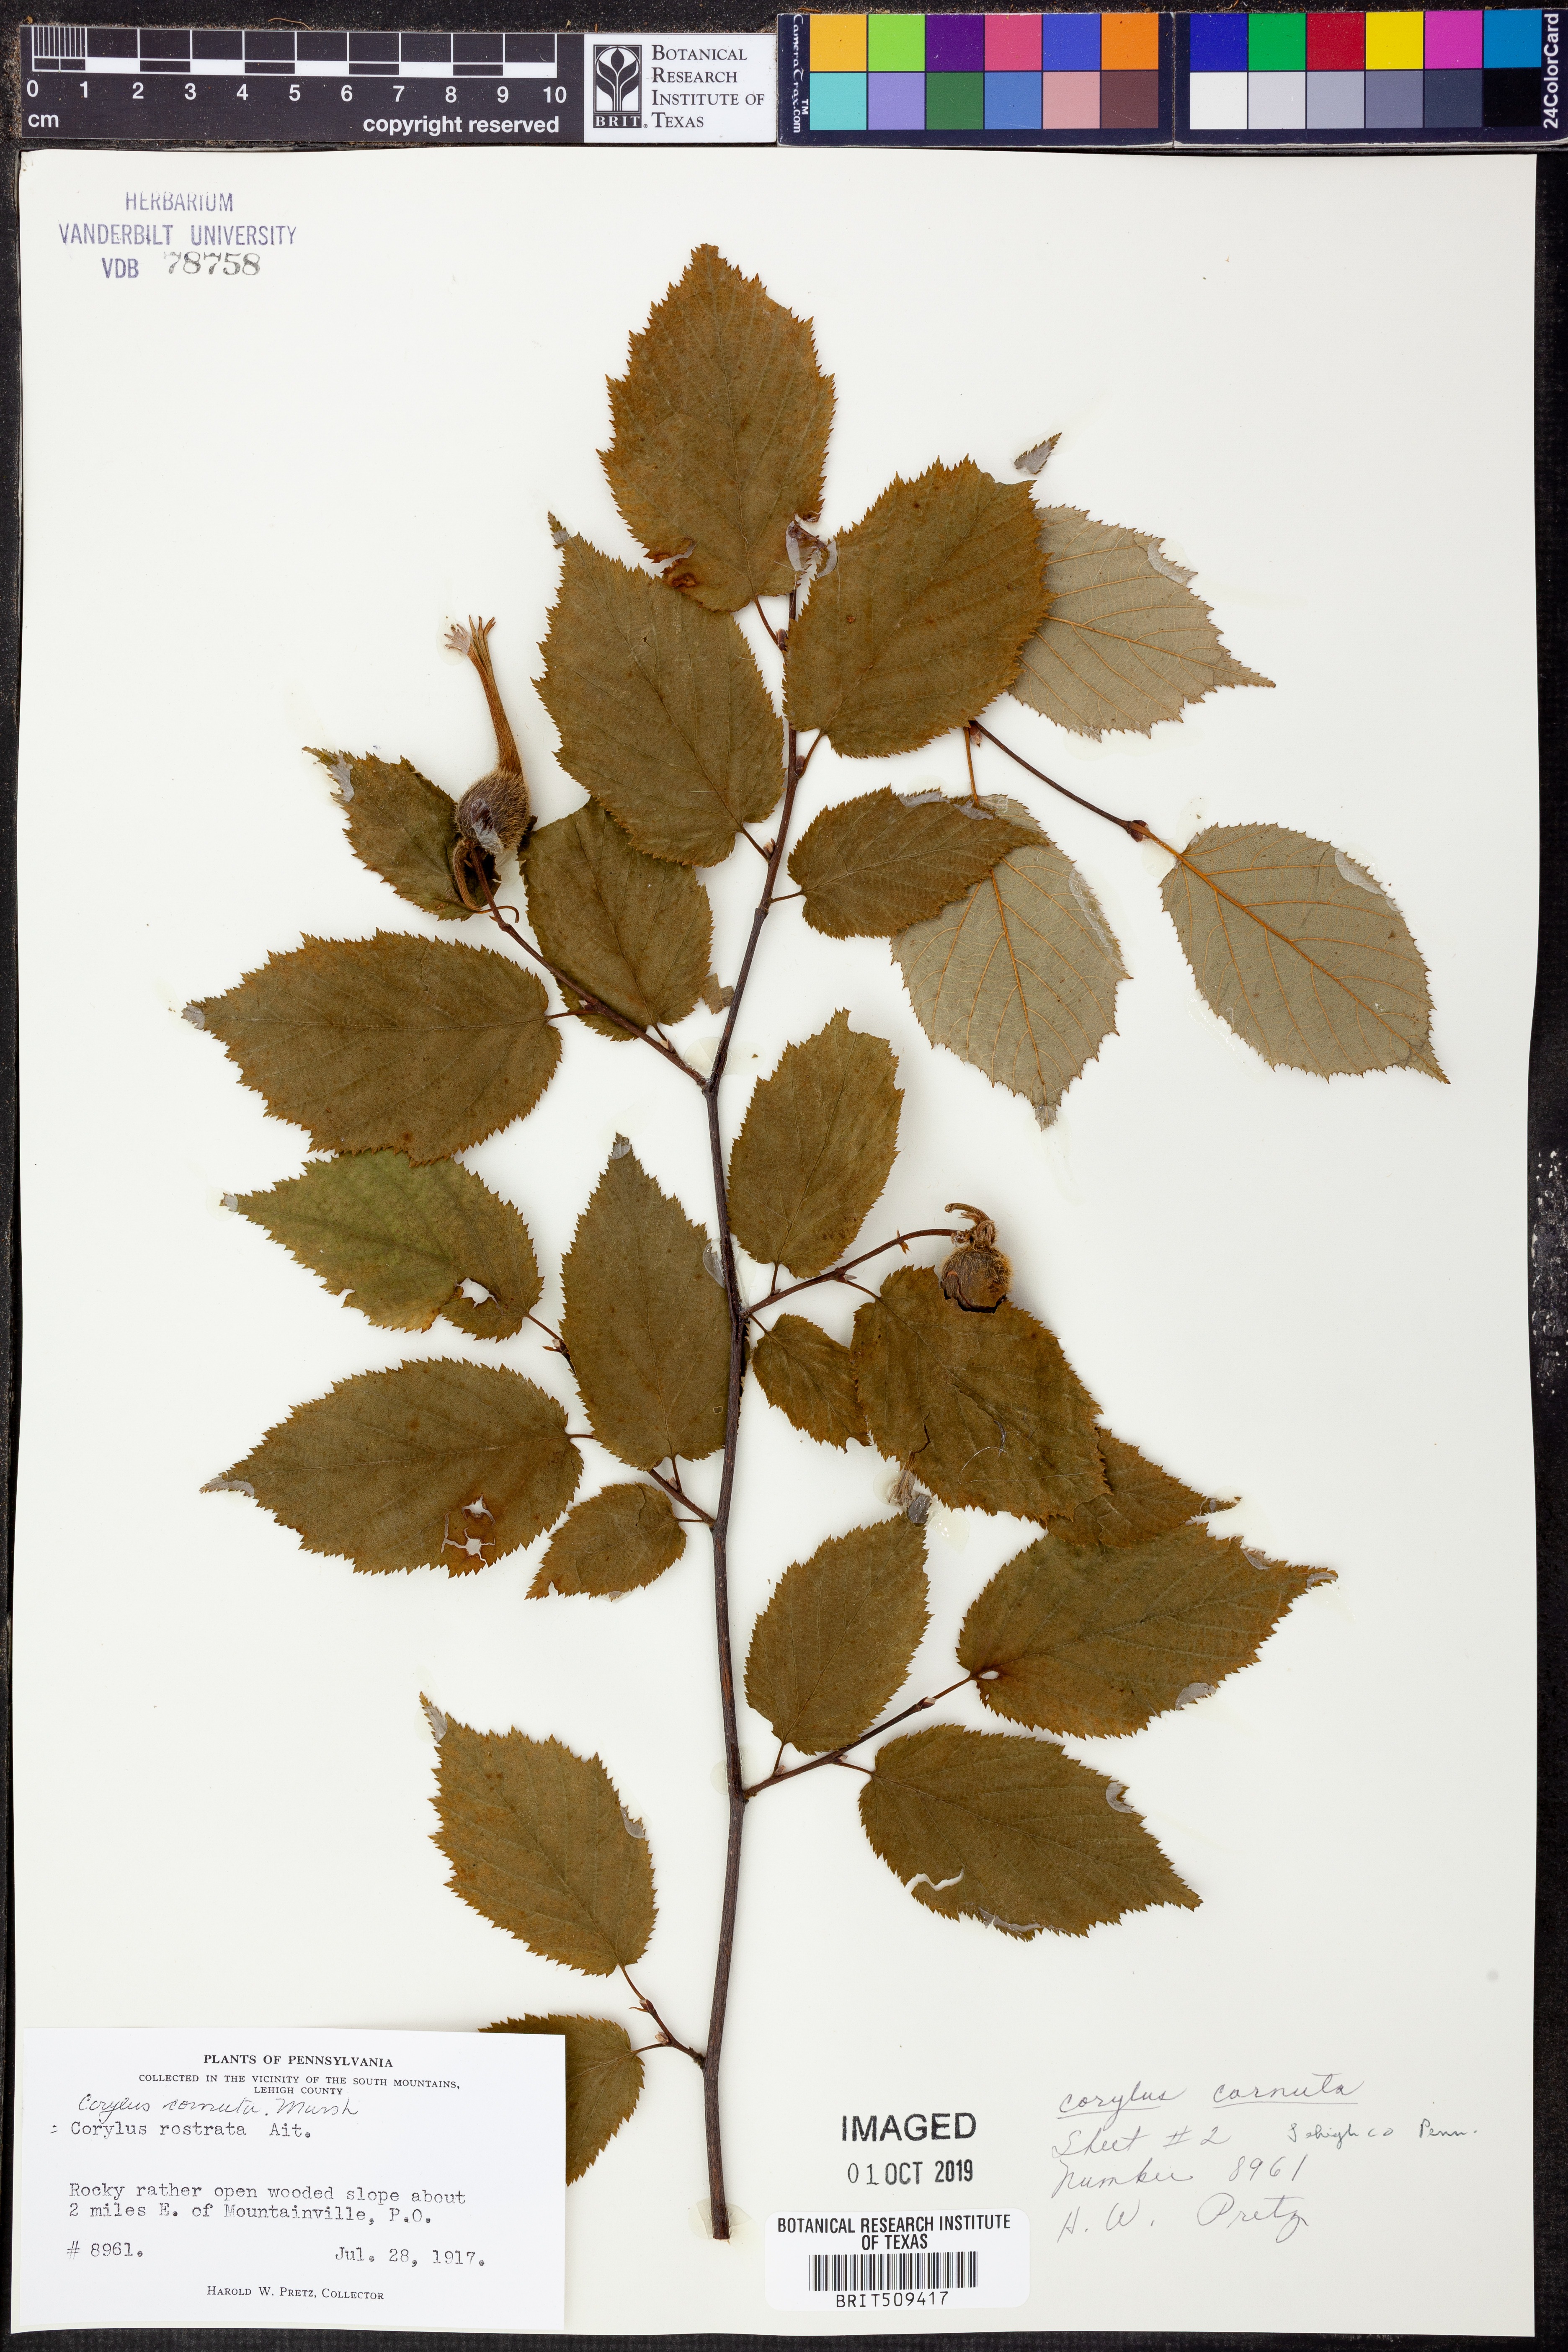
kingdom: Plantae
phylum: Tracheophyta
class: Magnoliopsida
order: Fagales
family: Betulaceae
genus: Corylus
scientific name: Corylus cornuta
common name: Beaked hazel
